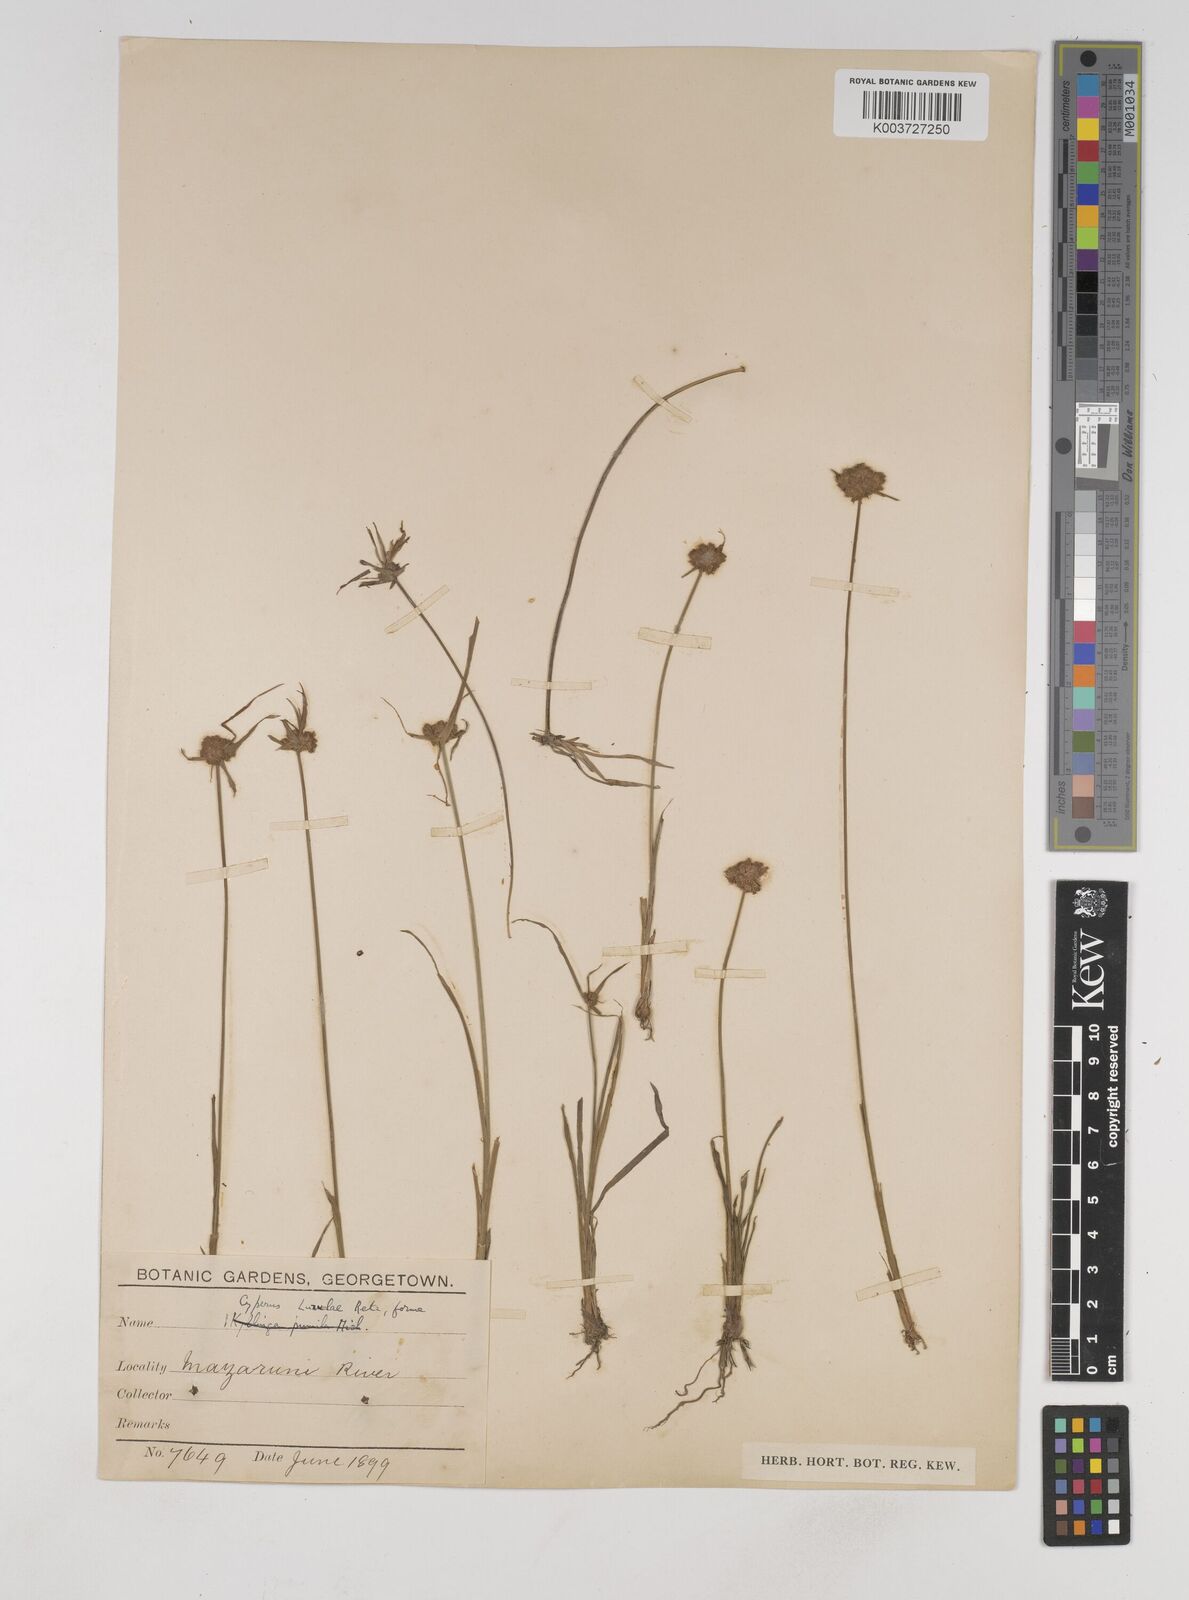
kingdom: Plantae
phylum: Tracheophyta
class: Liliopsida
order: Poales
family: Cyperaceae
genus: Cyperus
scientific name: Cyperus luzulae
